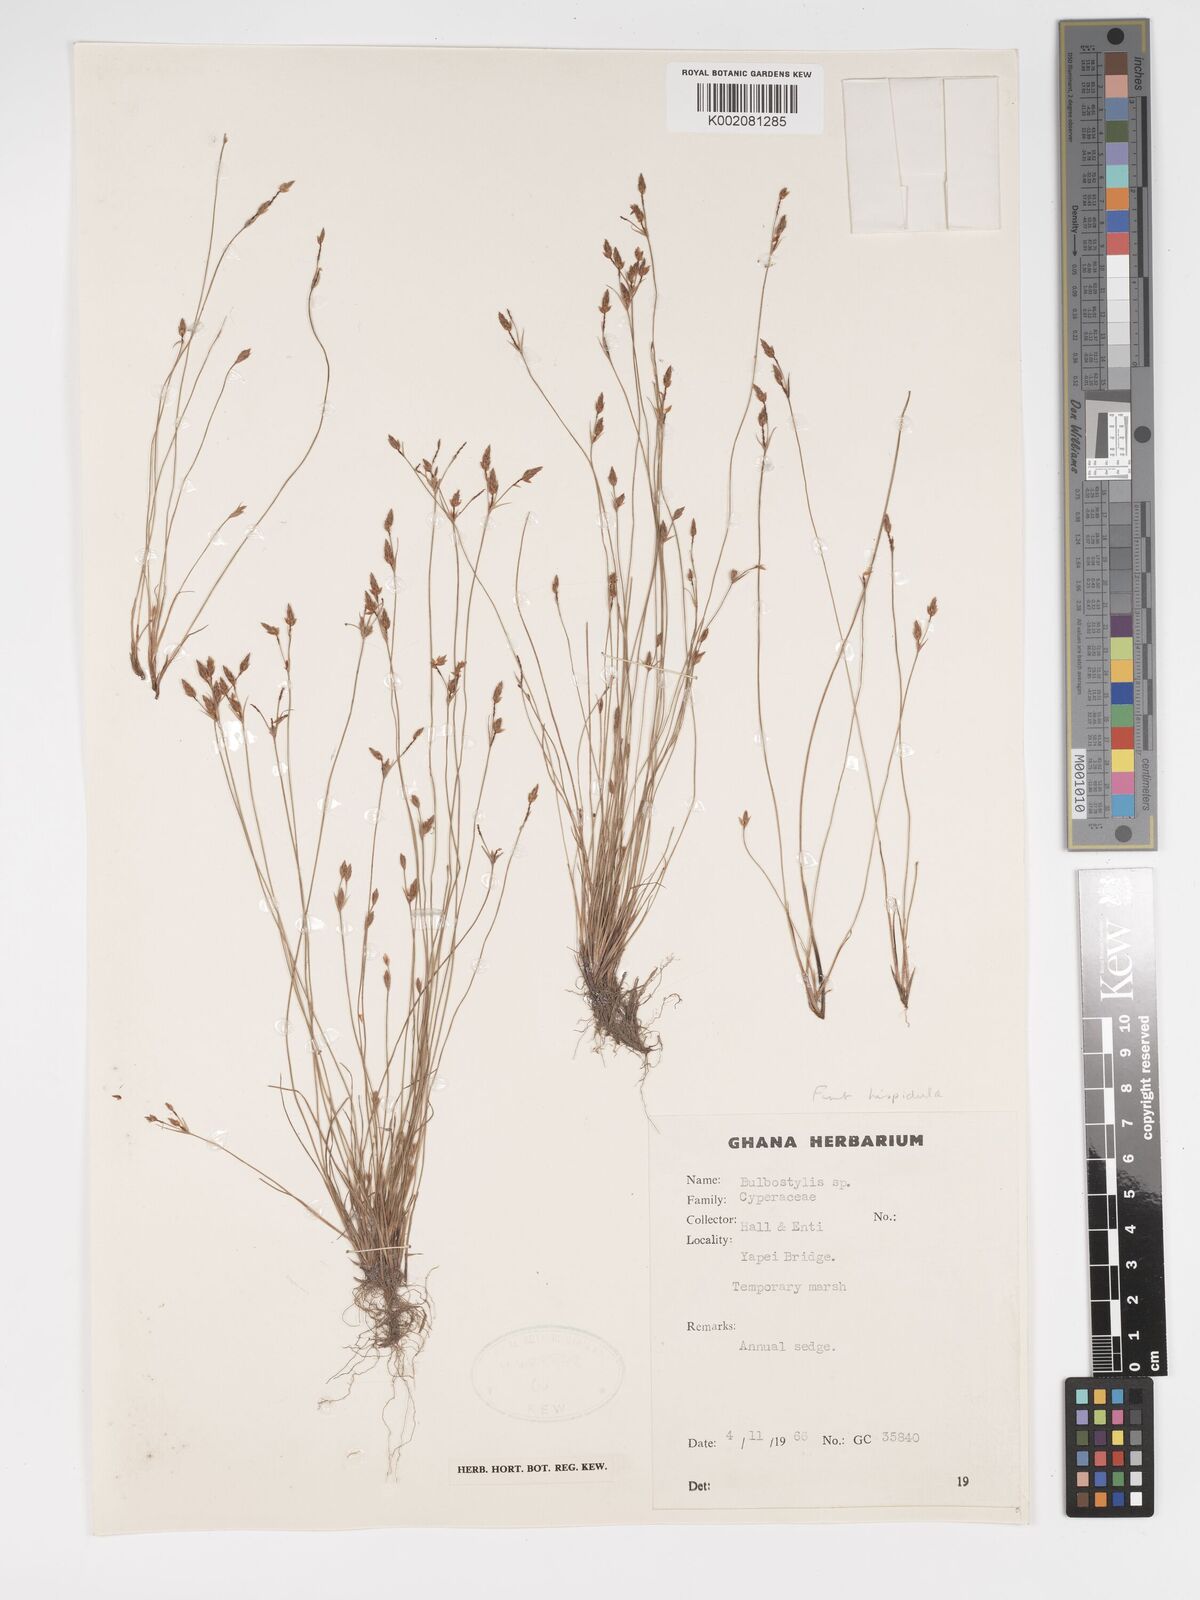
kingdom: Plantae
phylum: Tracheophyta
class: Liliopsida
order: Poales
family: Cyperaceae
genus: Bulbostylis
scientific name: Bulbostylis
